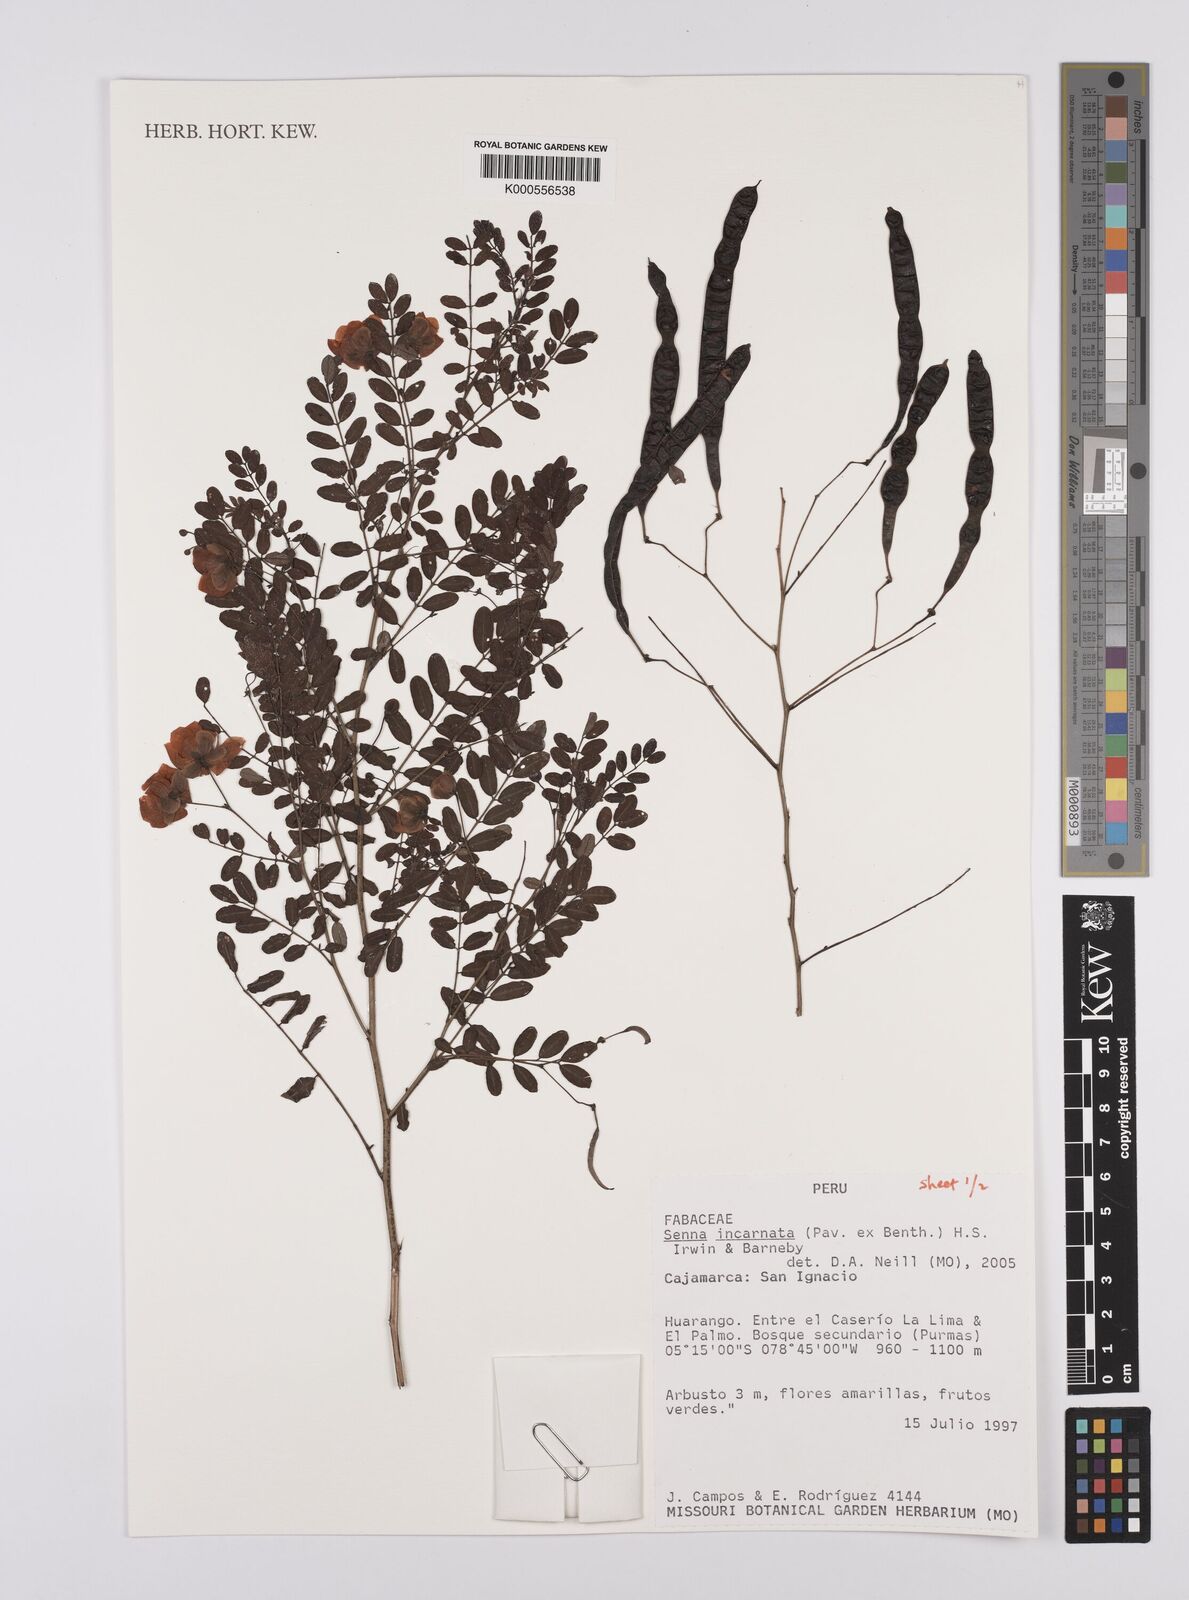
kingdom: Plantae
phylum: Tracheophyta
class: Magnoliopsida
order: Fabales
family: Fabaceae
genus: Senna
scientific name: Senna incarnata
